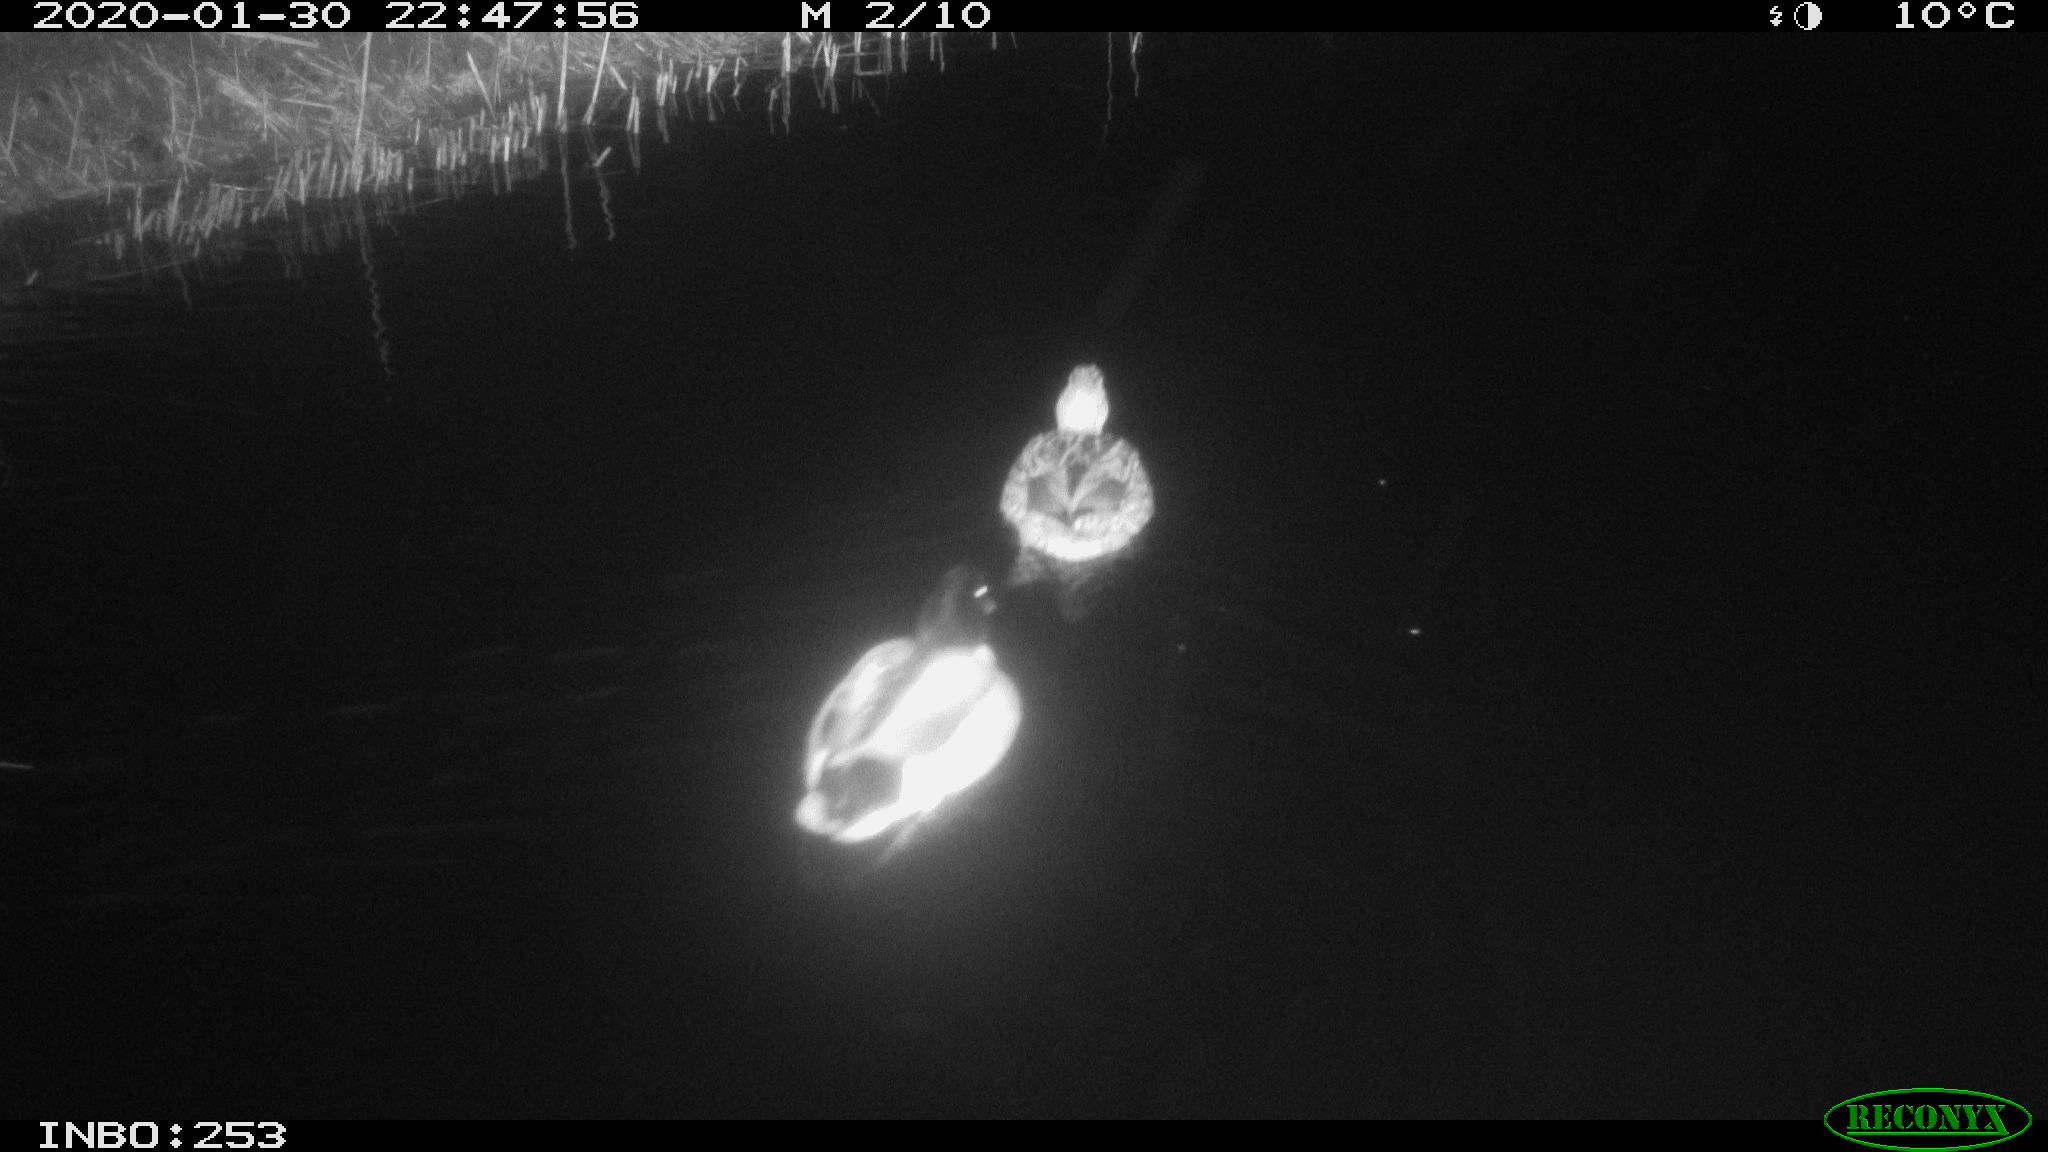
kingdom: Animalia
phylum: Chordata
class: Aves
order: Anseriformes
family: Anatidae
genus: Anas
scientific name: Anas platyrhynchos
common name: Mallard
